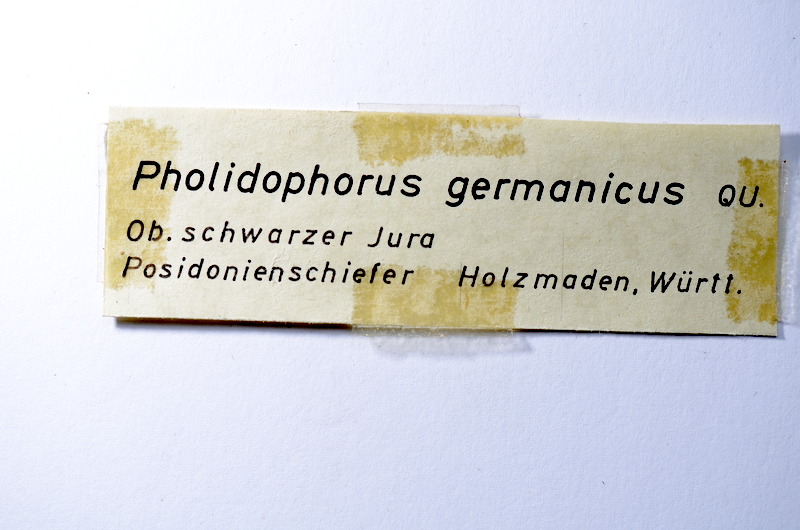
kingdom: Animalia
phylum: Chordata
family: Pholidophoridae
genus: Pholidophorus
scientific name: Pholidophorus germanicus
